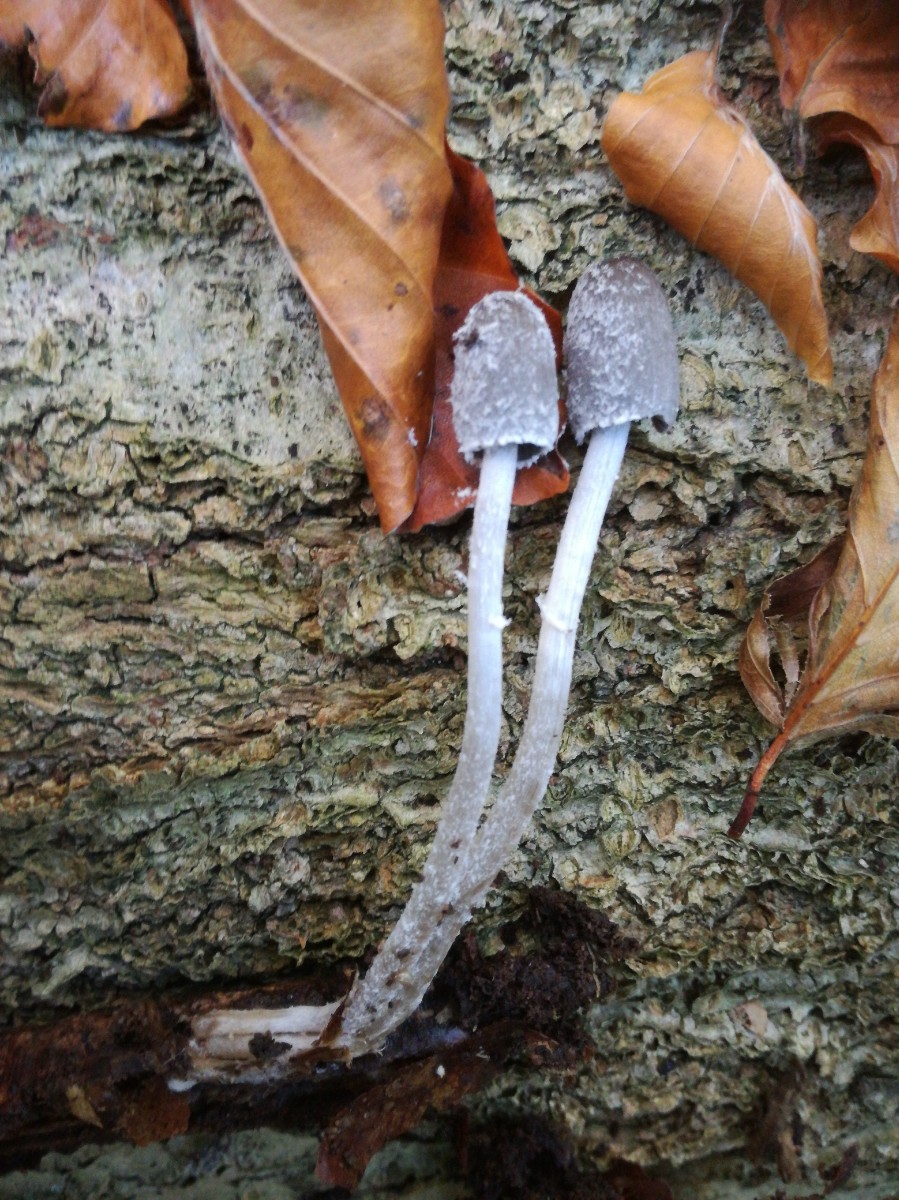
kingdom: Fungi
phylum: Basidiomycota
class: Agaricomycetes
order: Agaricales
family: Psathyrellaceae
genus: Coprinopsis
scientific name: Coprinopsis echinospora
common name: fuglemøg-blækhat
